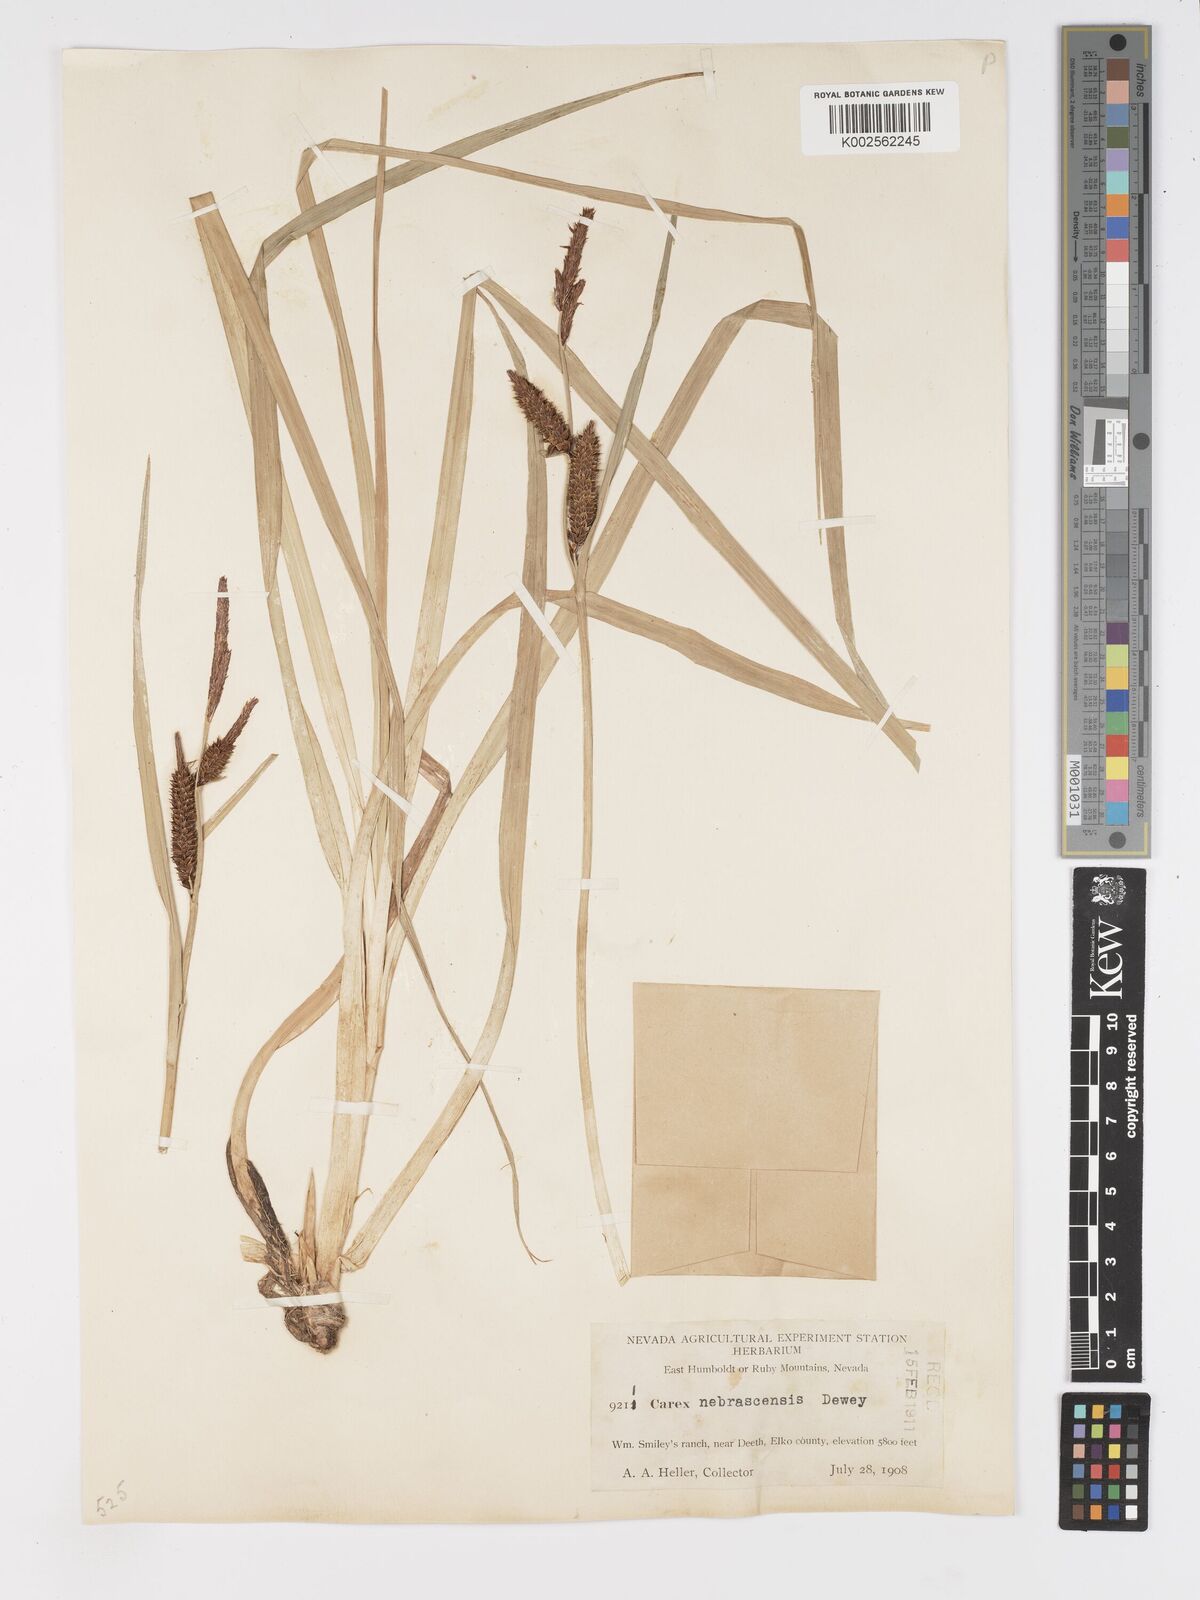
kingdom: Plantae
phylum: Tracheophyta
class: Liliopsida
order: Poales
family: Cyperaceae
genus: Carex
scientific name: Carex nebrascensis
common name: Nebraska sedge
